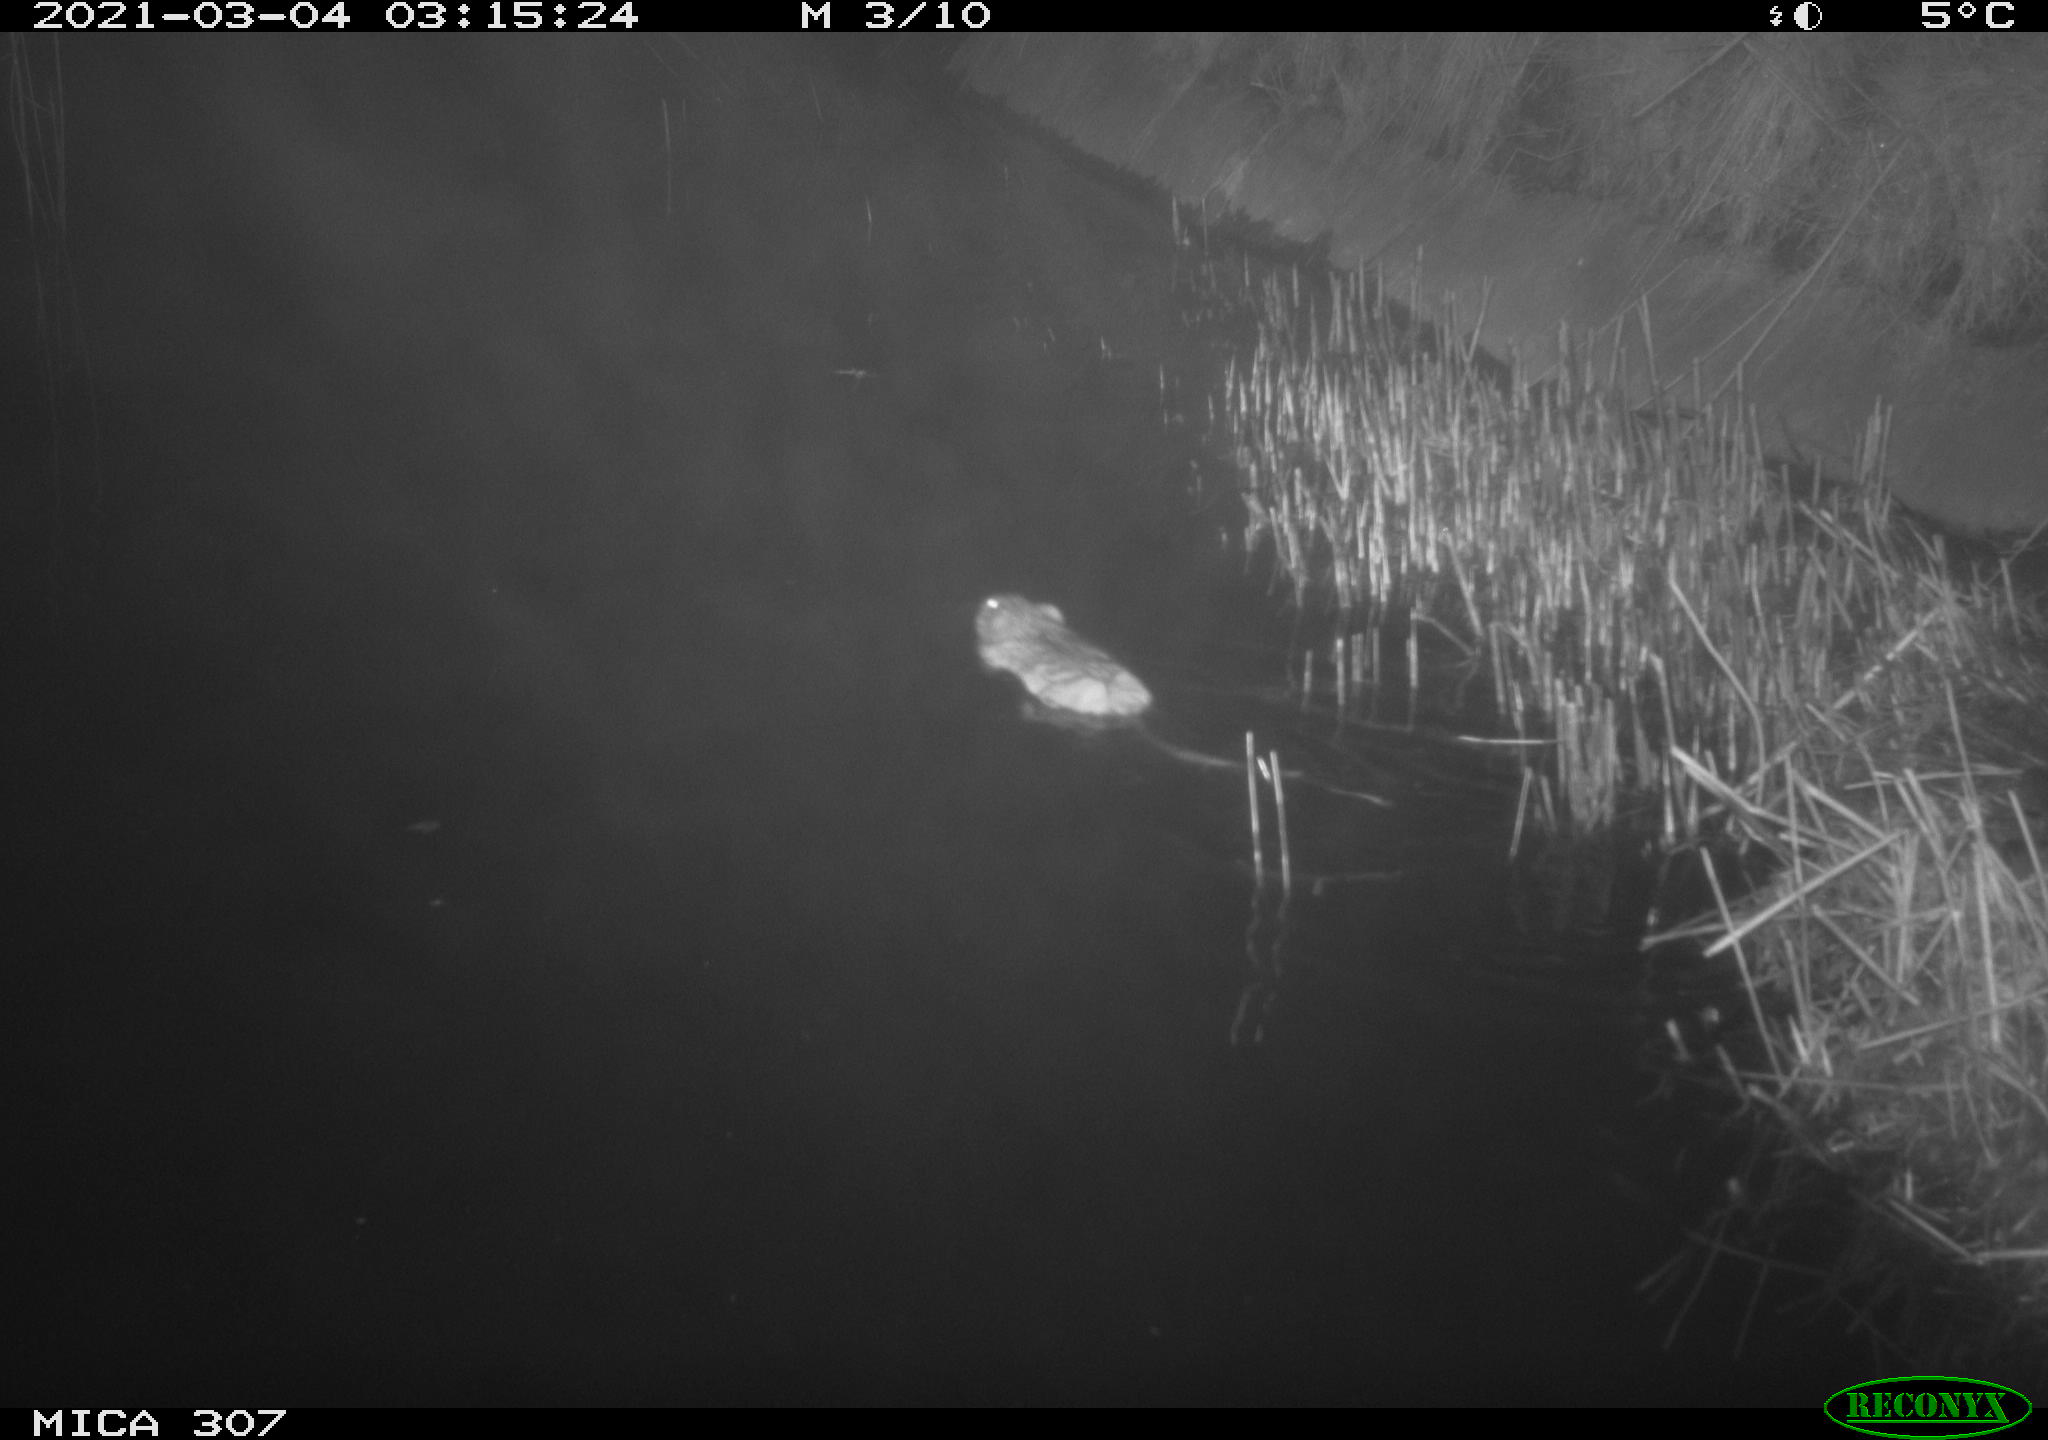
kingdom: Animalia
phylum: Chordata
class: Mammalia
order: Rodentia
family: Muridae
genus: Rattus
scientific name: Rattus norvegicus
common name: Brown rat
